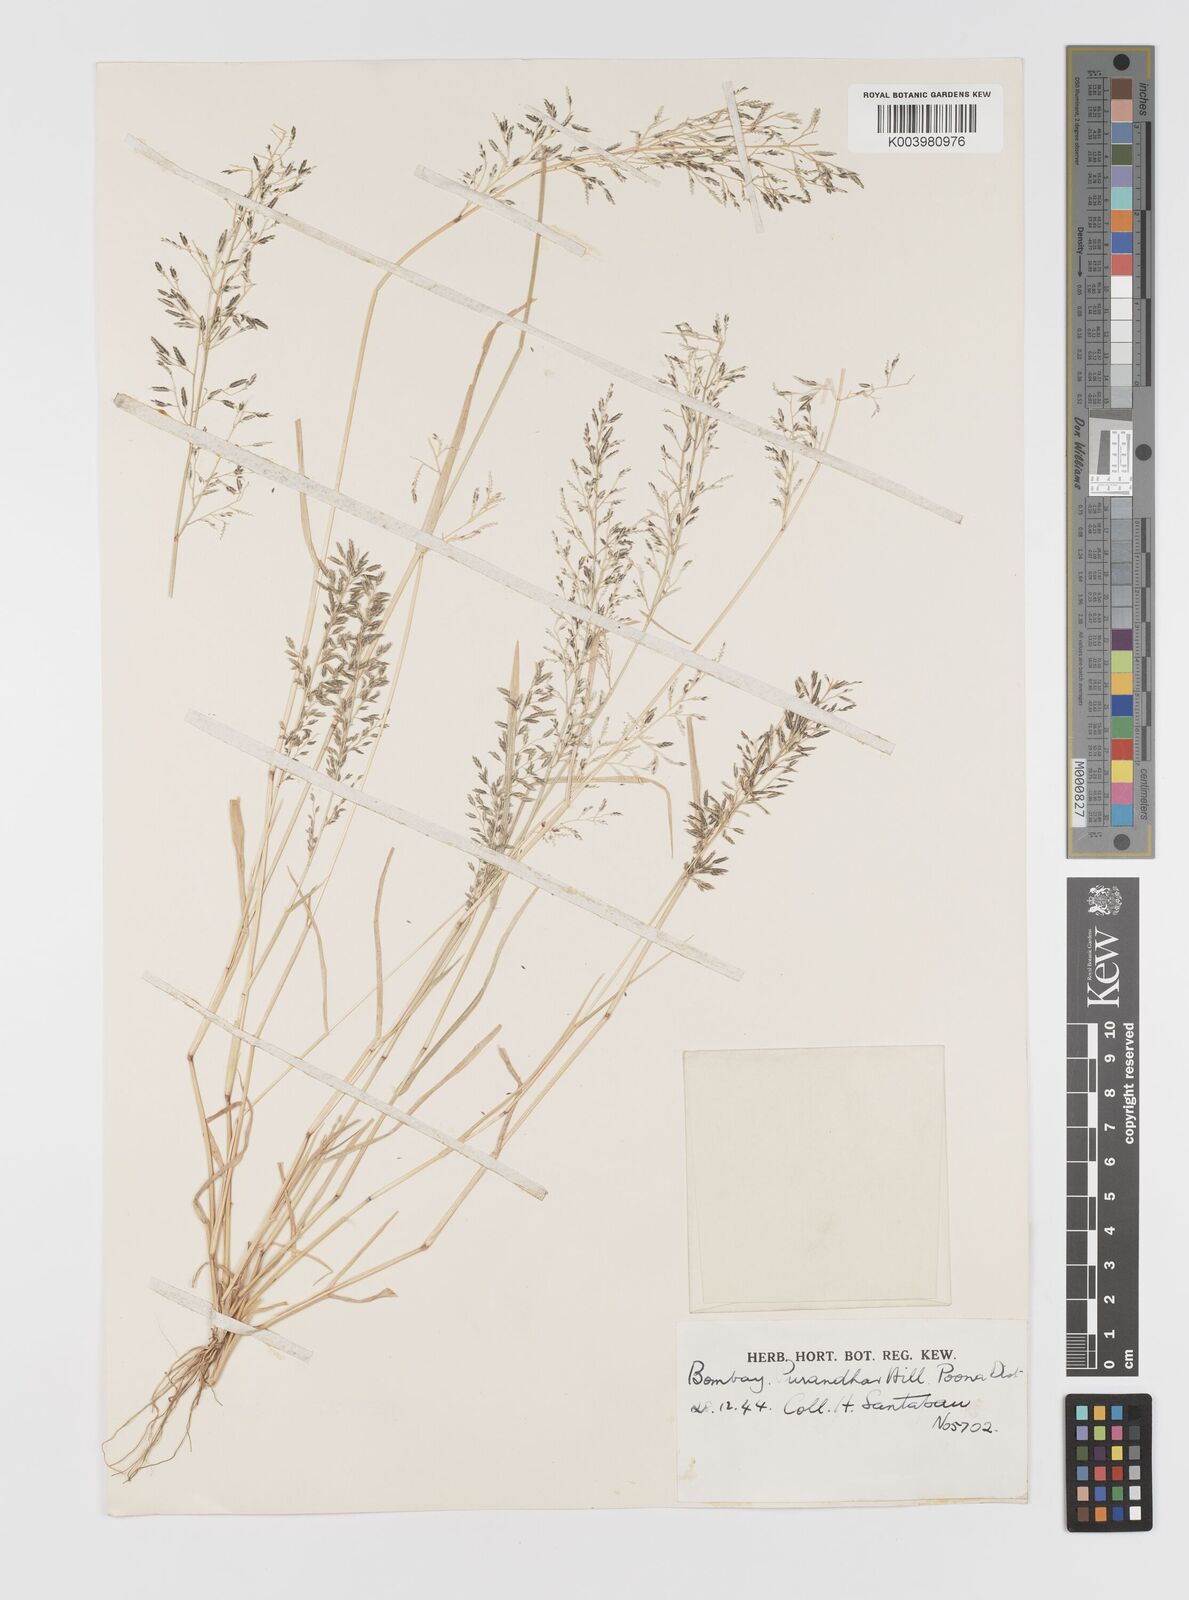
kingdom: Plantae
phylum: Tracheophyta
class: Liliopsida
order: Poales
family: Poaceae
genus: Eragrostis
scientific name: Eragrostis minor
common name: Small love-grass
